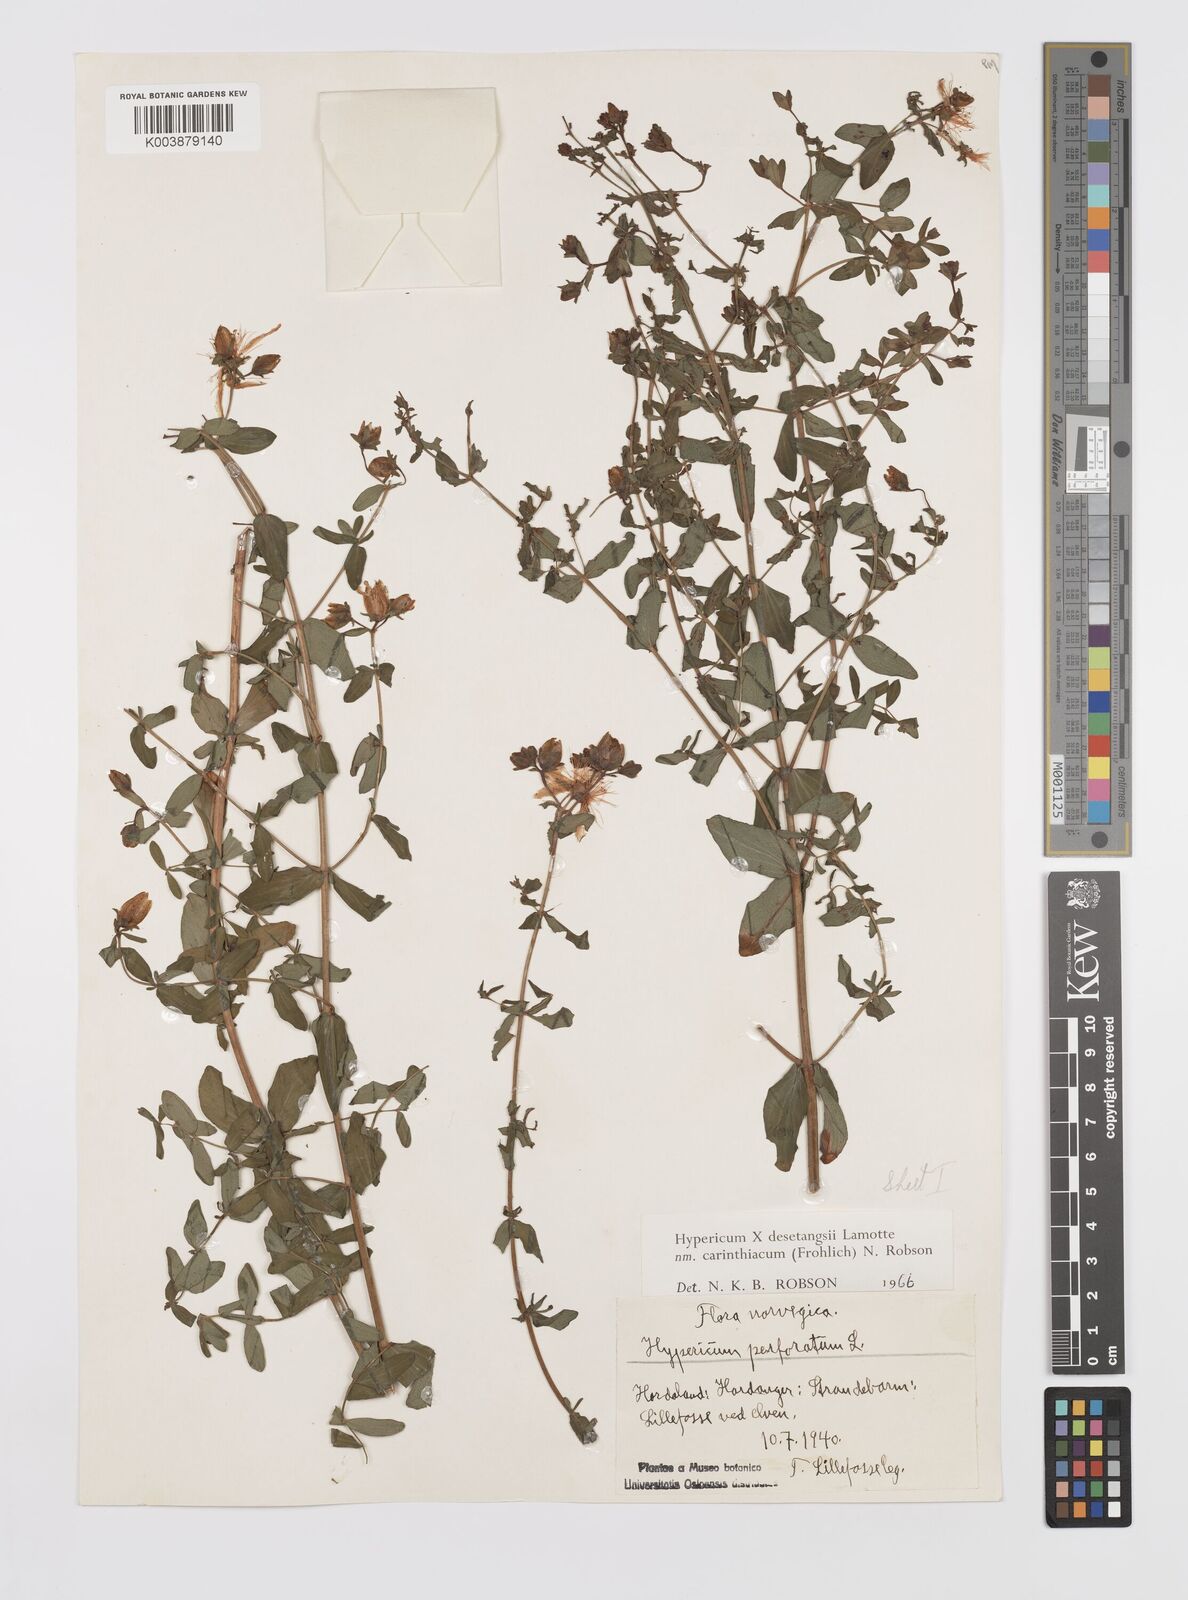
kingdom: Plantae
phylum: Tracheophyta
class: Magnoliopsida
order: Malpighiales
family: Hypericaceae
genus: Hypericum
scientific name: Hypericum maculatum
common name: Imperforate st. john's-wort
